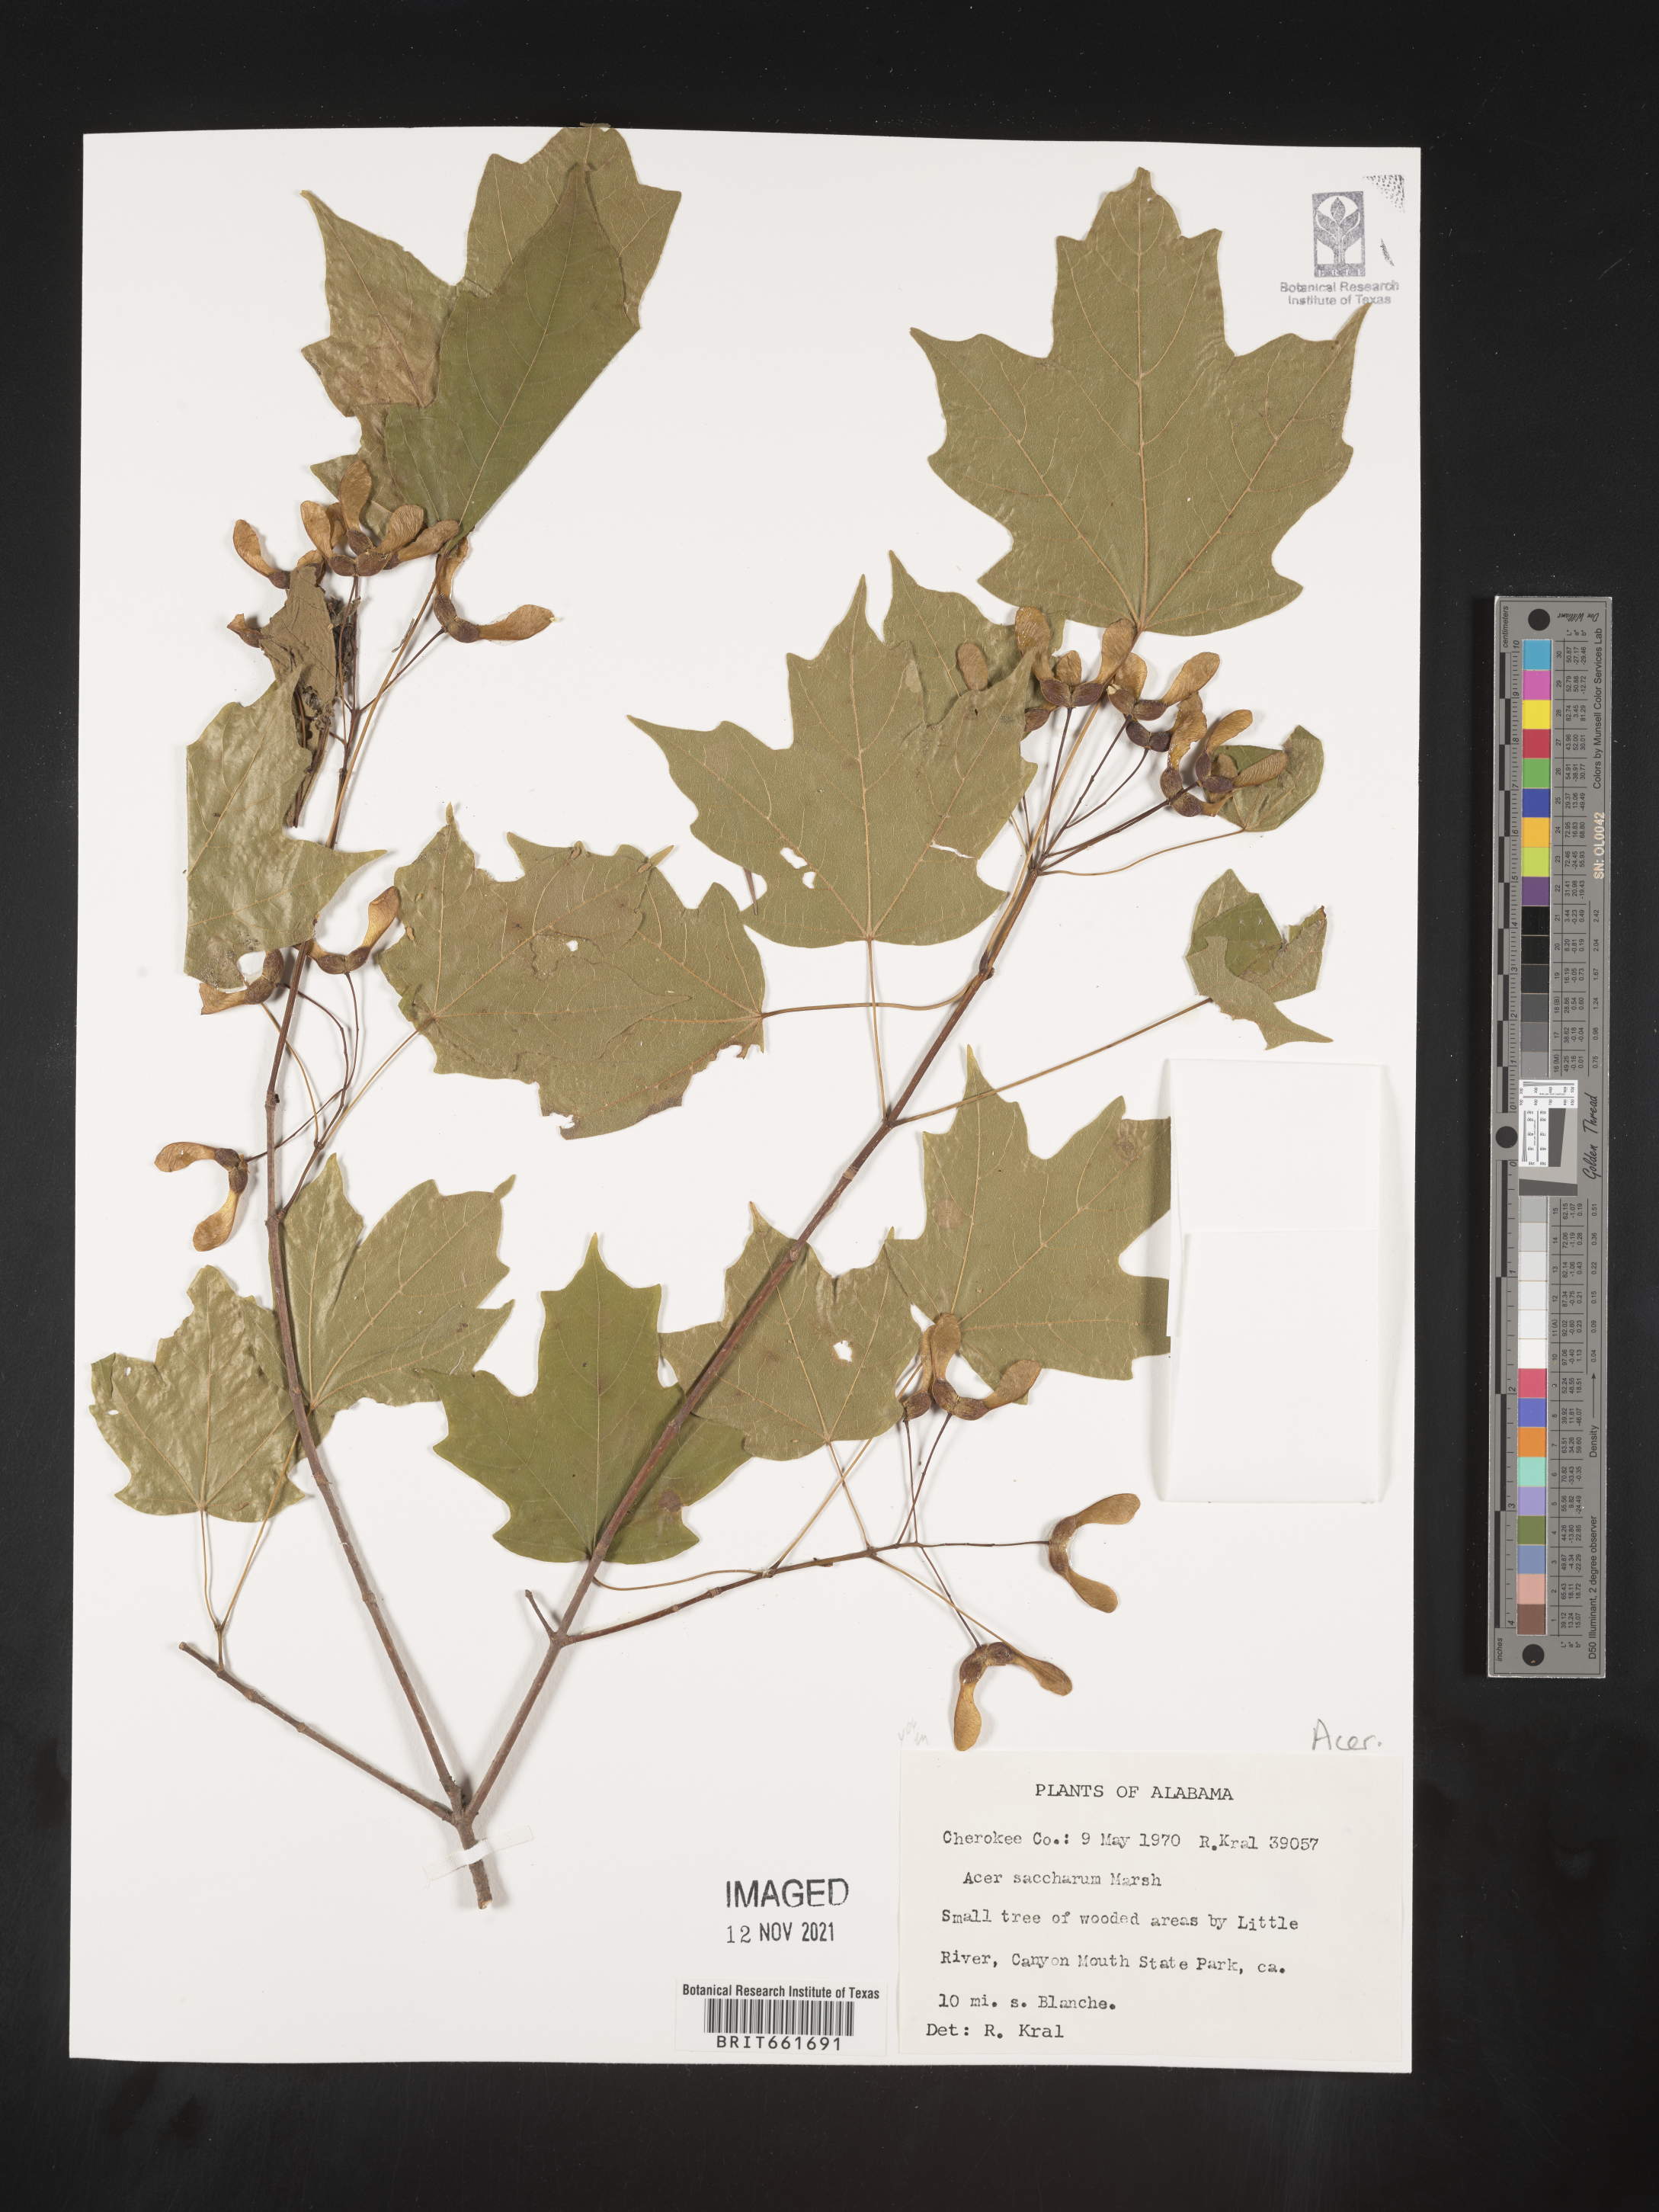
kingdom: Plantae
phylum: Tracheophyta
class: Magnoliopsida
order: Sapindales
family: Sapindaceae
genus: Acer
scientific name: Acer saccharum
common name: Sugar maple
